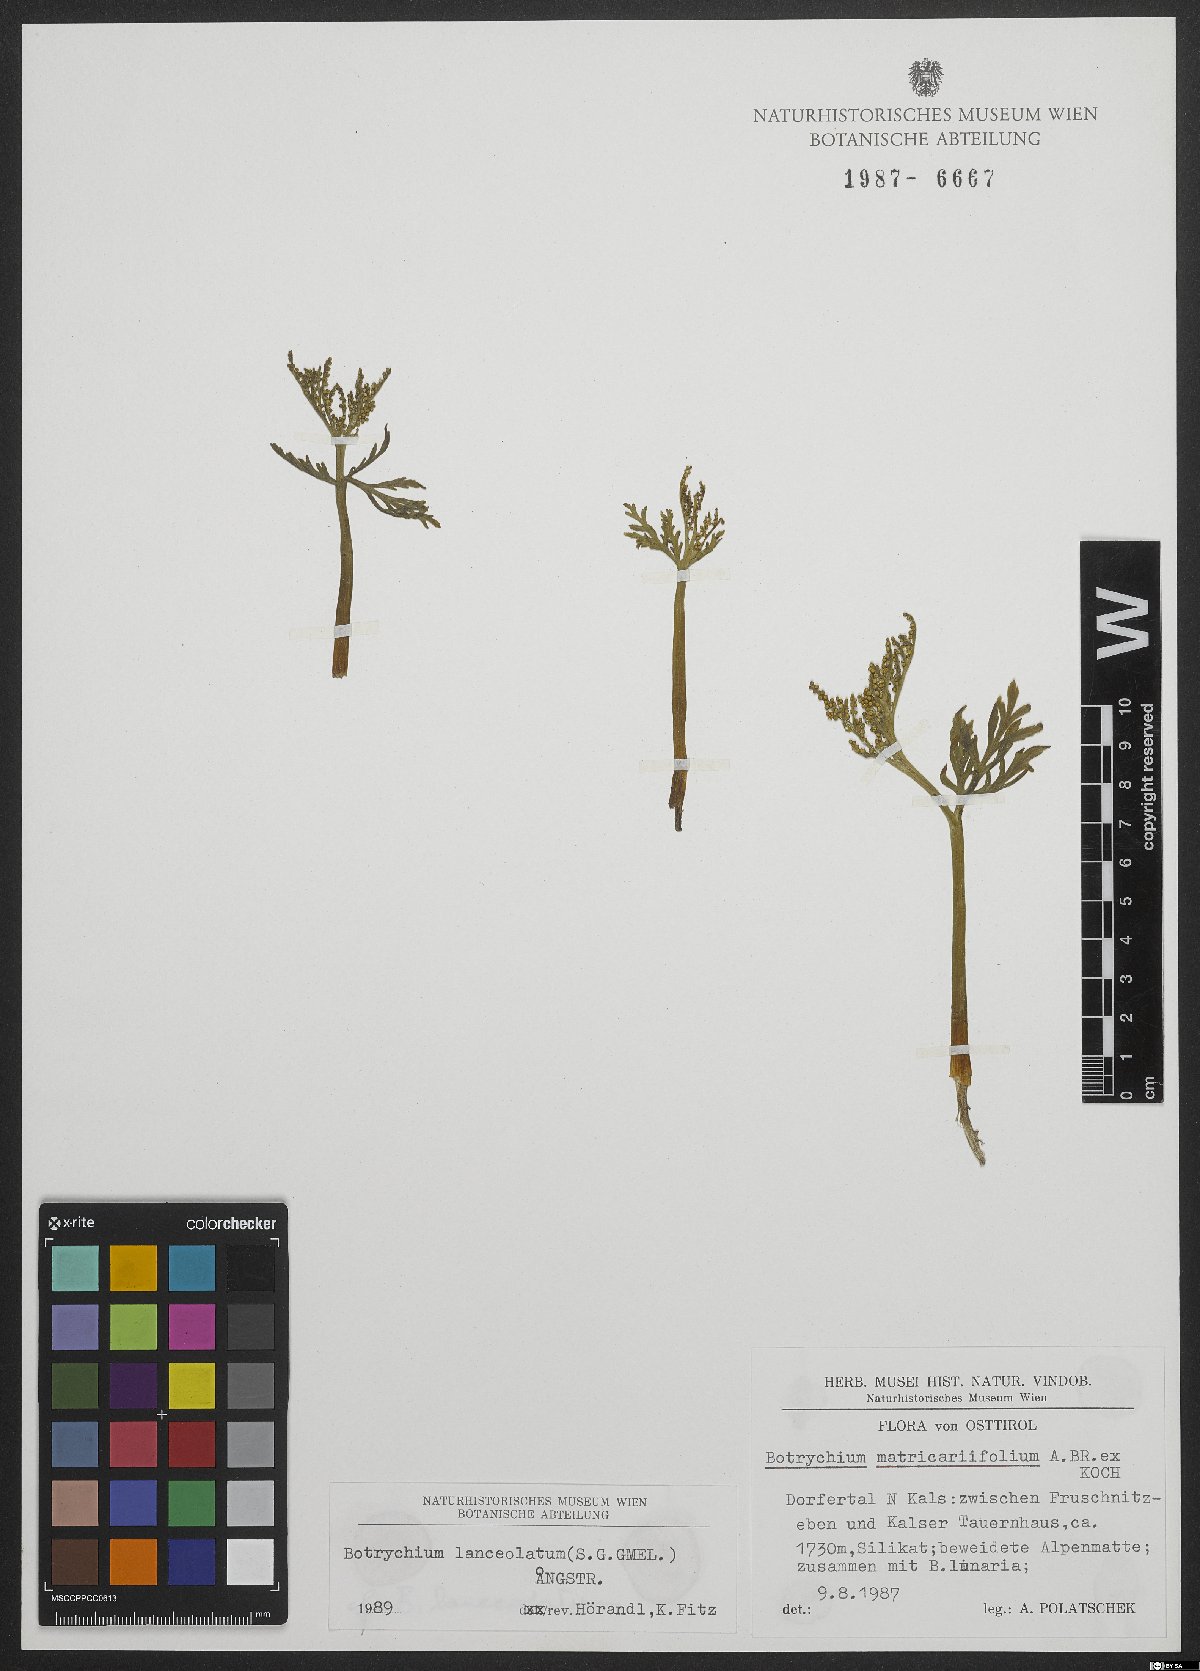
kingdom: Plantae
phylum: Tracheophyta
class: Polypodiopsida
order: Ophioglossales
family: Ophioglossaceae
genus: Botrychium
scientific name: Botrychium lanceolatum
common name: Lance-leaved moonwort
